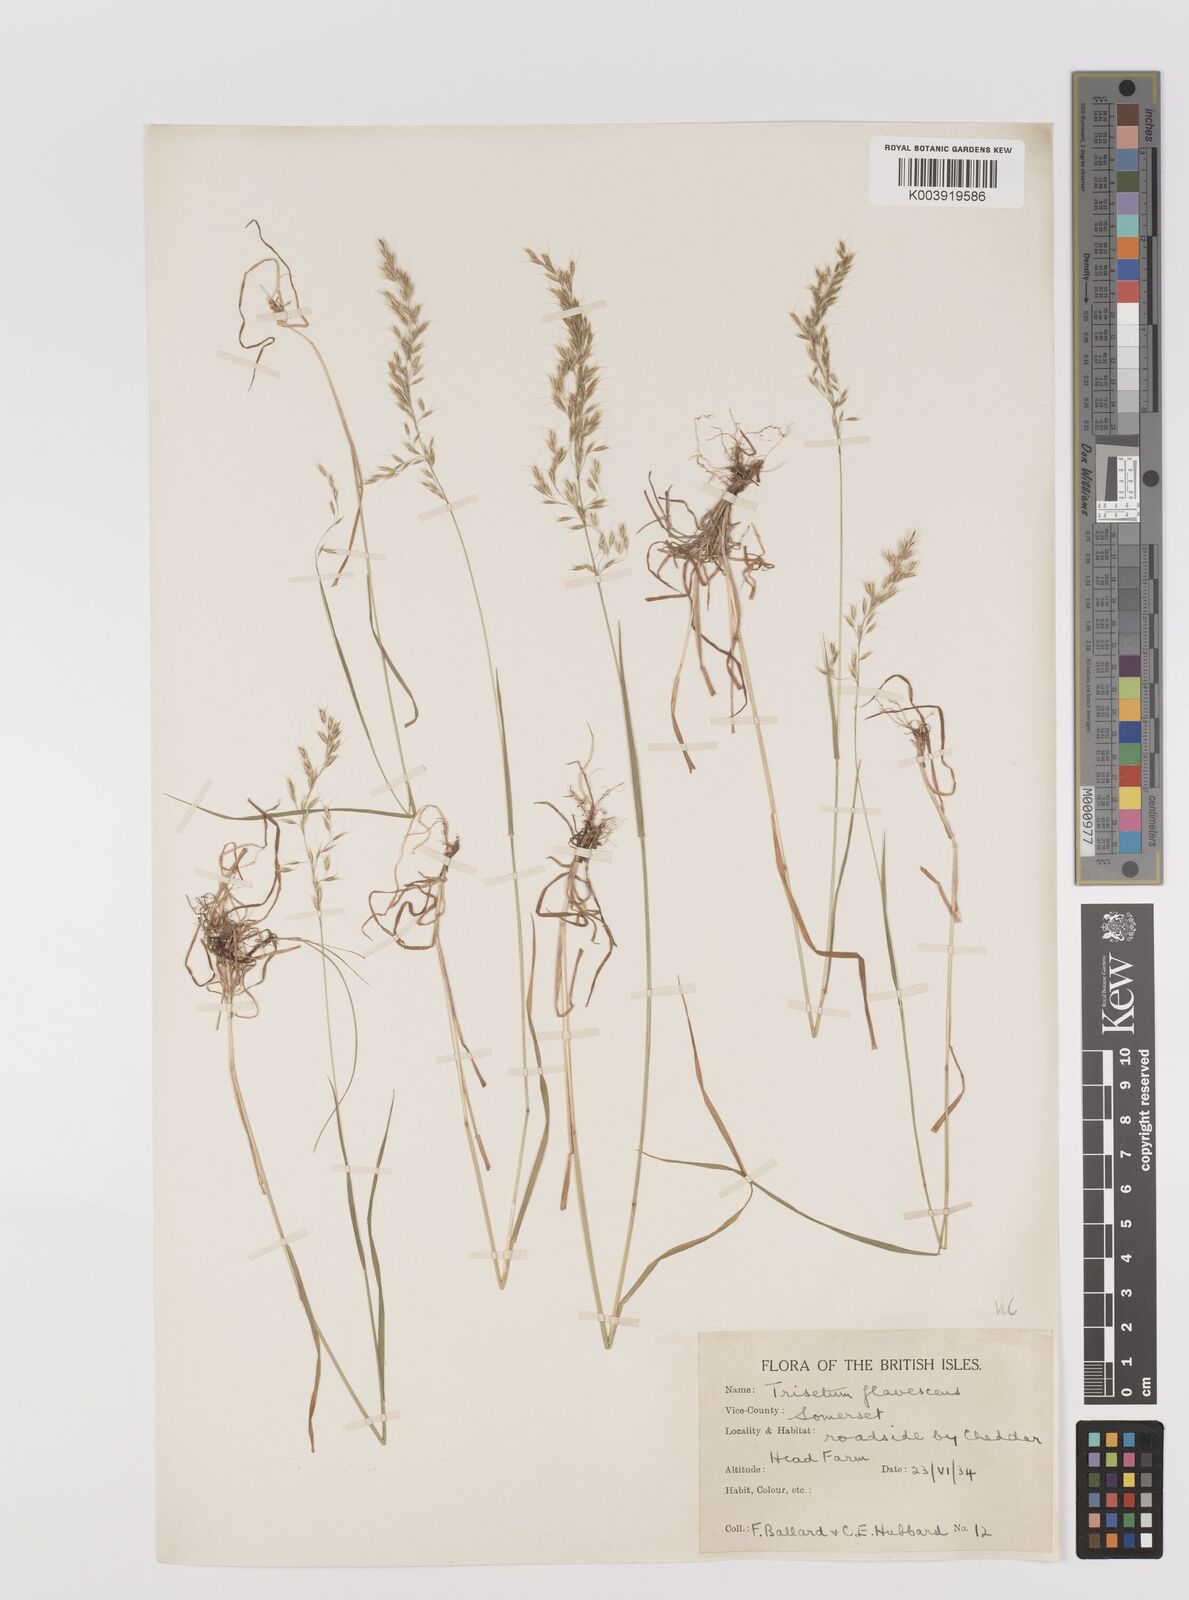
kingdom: Plantae
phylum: Tracheophyta
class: Liliopsida
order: Poales
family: Poaceae
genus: Trisetum
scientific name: Trisetum flavescens
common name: Yellow oat-grass
